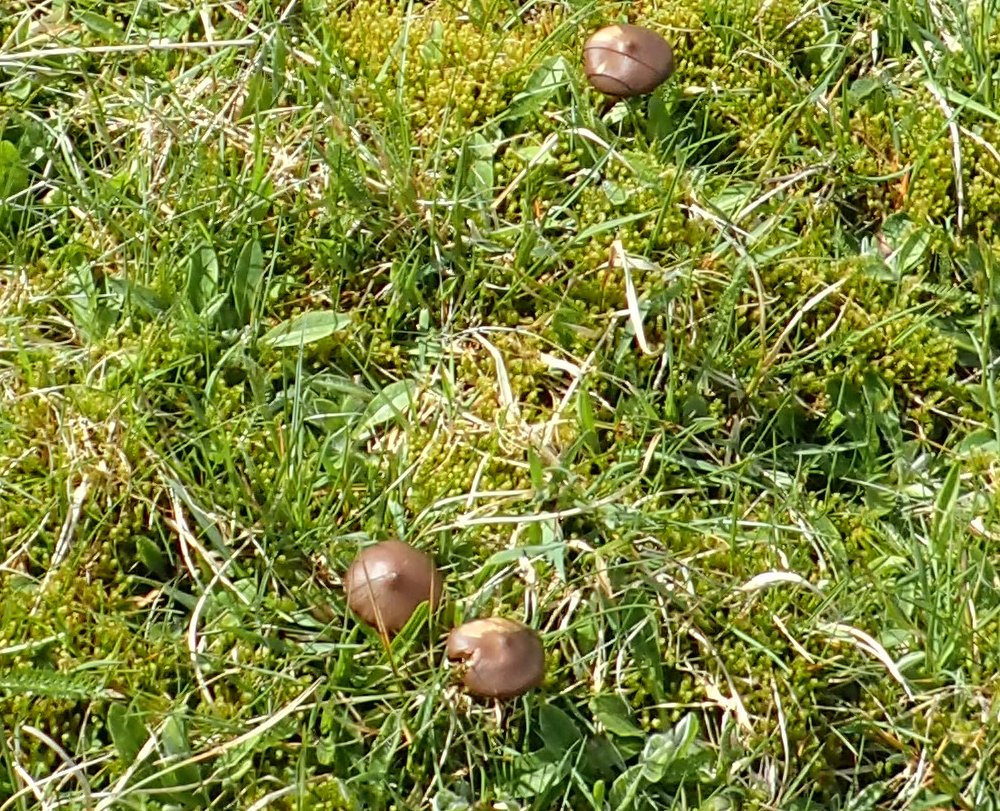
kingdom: Fungi
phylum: Basidiomycota
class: Agaricomycetes
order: Agaricales
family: Entolomataceae
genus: Entoloma
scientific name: Entoloma
